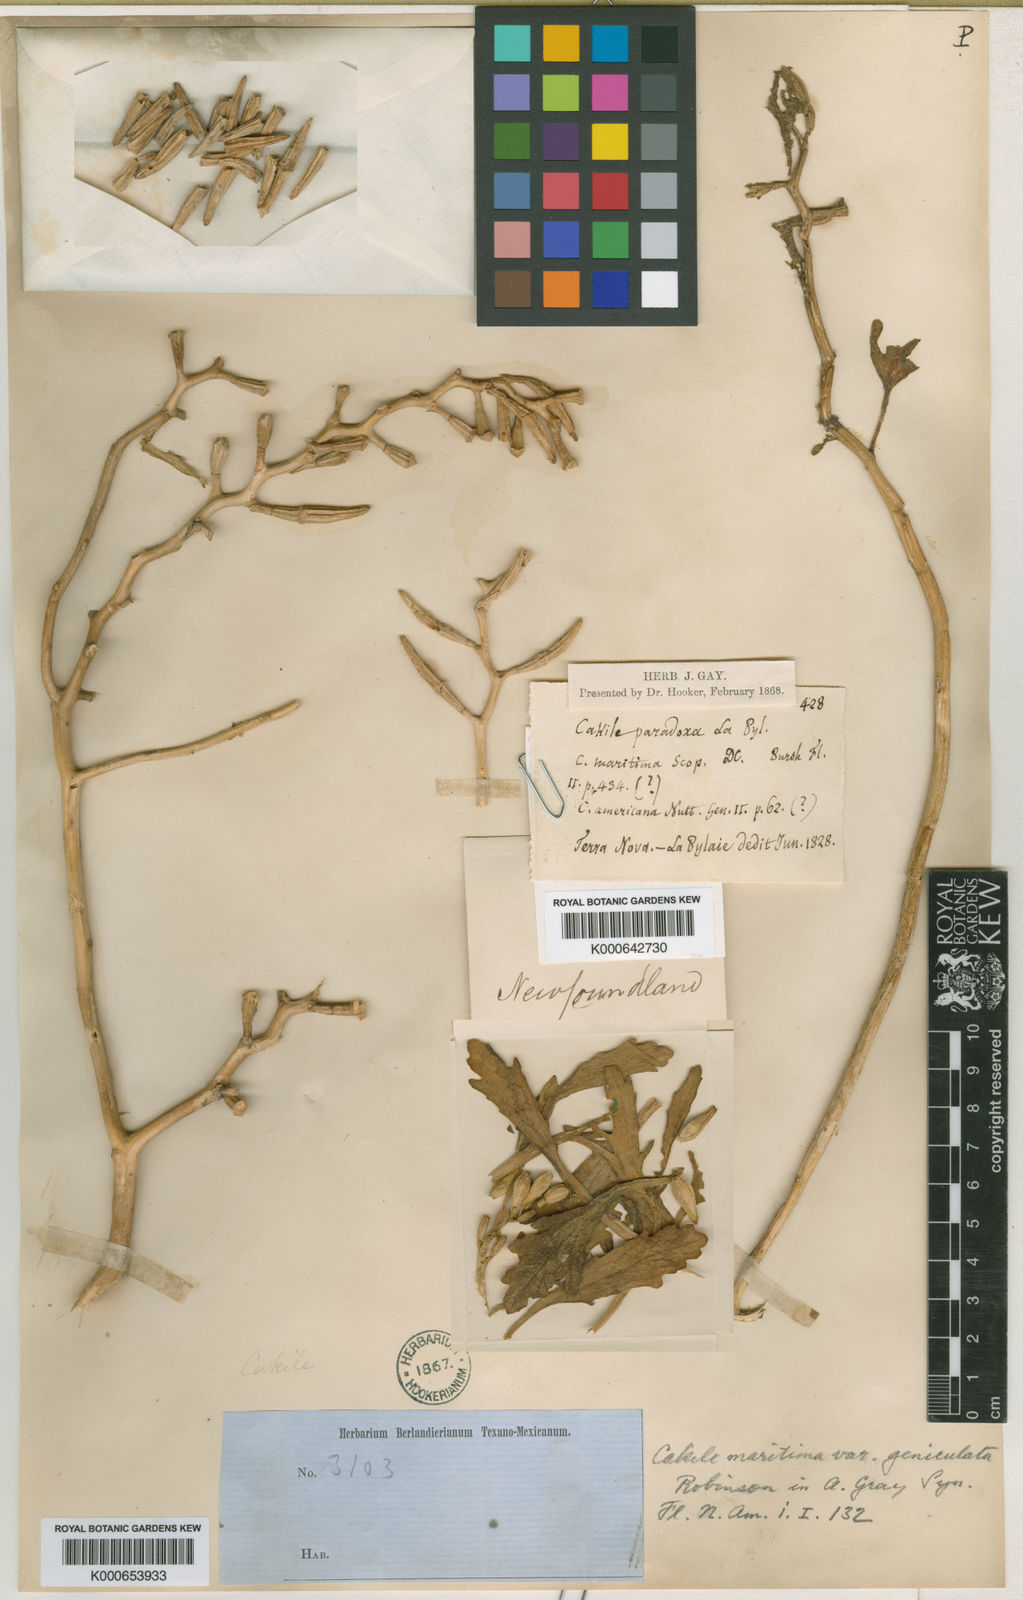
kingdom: Plantae
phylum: Tracheophyta
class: Magnoliopsida
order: Brassicales
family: Brassicaceae
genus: Cakile
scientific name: Cakile geniculata
